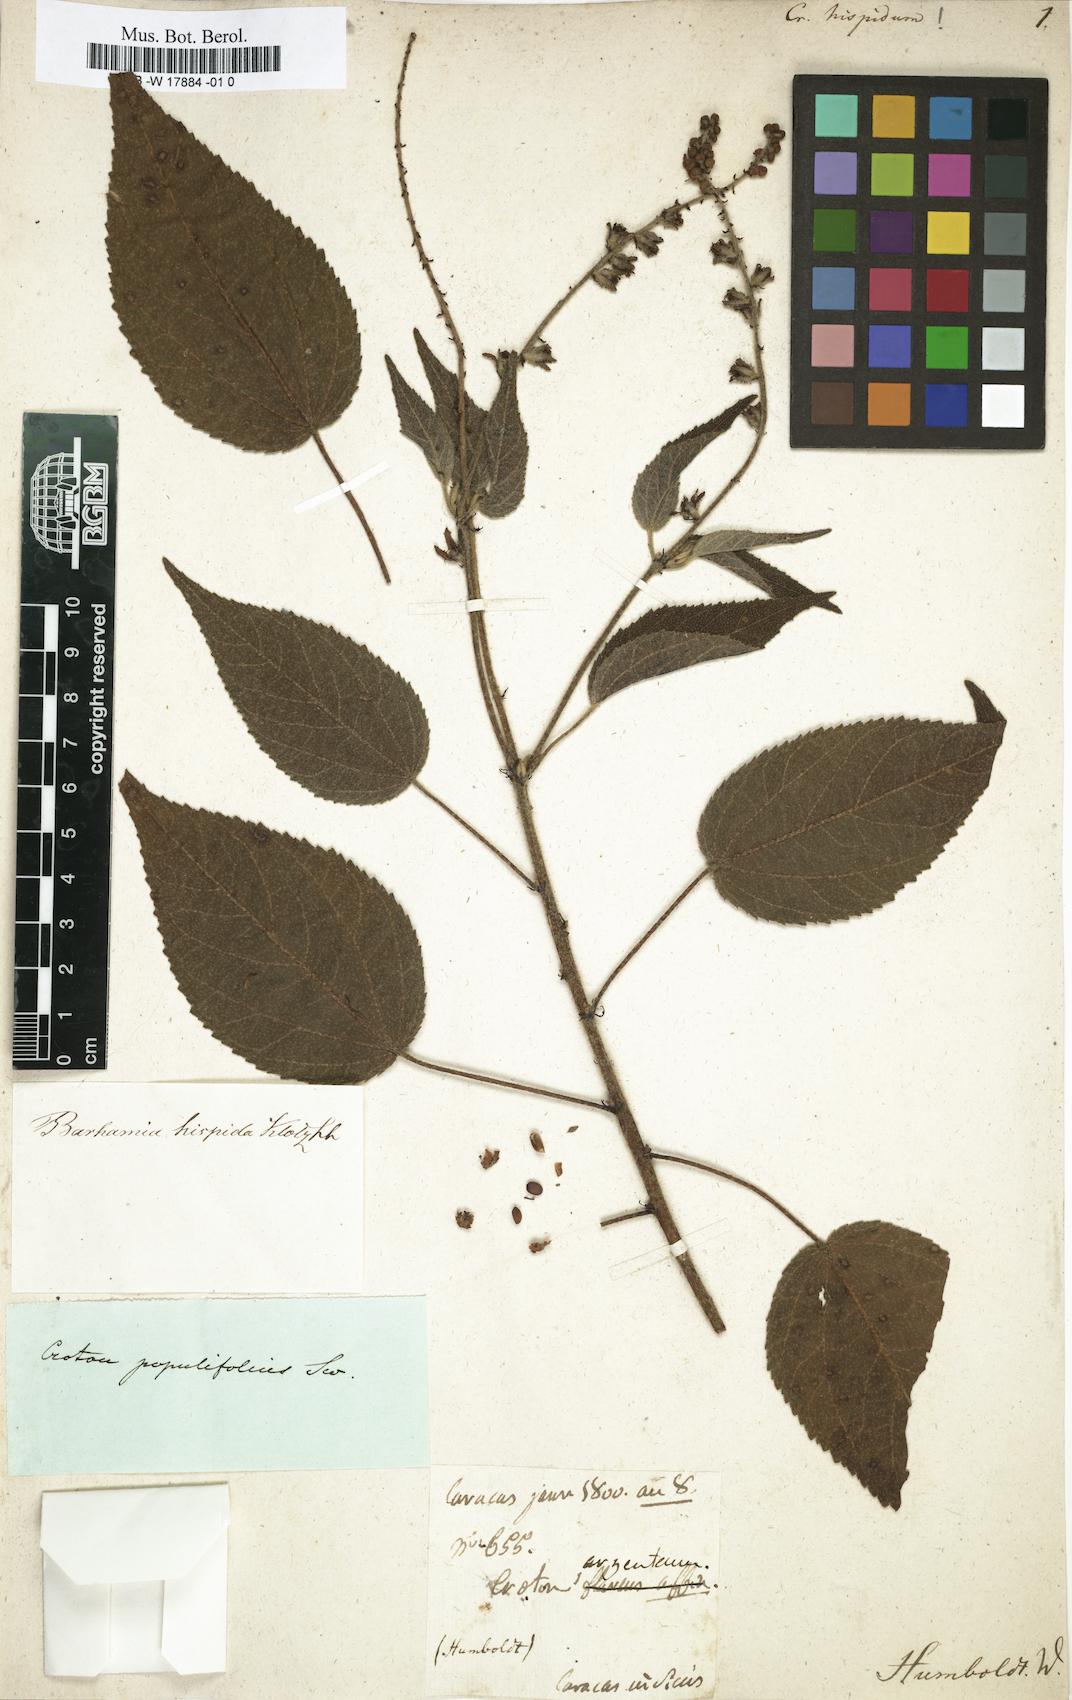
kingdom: Plantae
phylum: Tracheophyta
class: Magnoliopsida
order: Malpighiales
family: Euphorbiaceae
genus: Croton
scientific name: Croton hircinus
